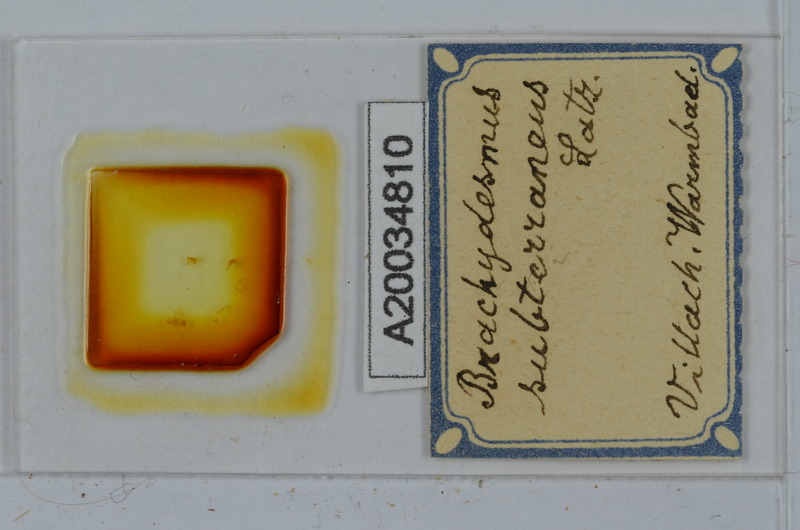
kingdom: Animalia
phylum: Arthropoda
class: Diplopoda
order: Polydesmida
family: Polydesmidae
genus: Brachydesmus
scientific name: Brachydesmus subterraneus
